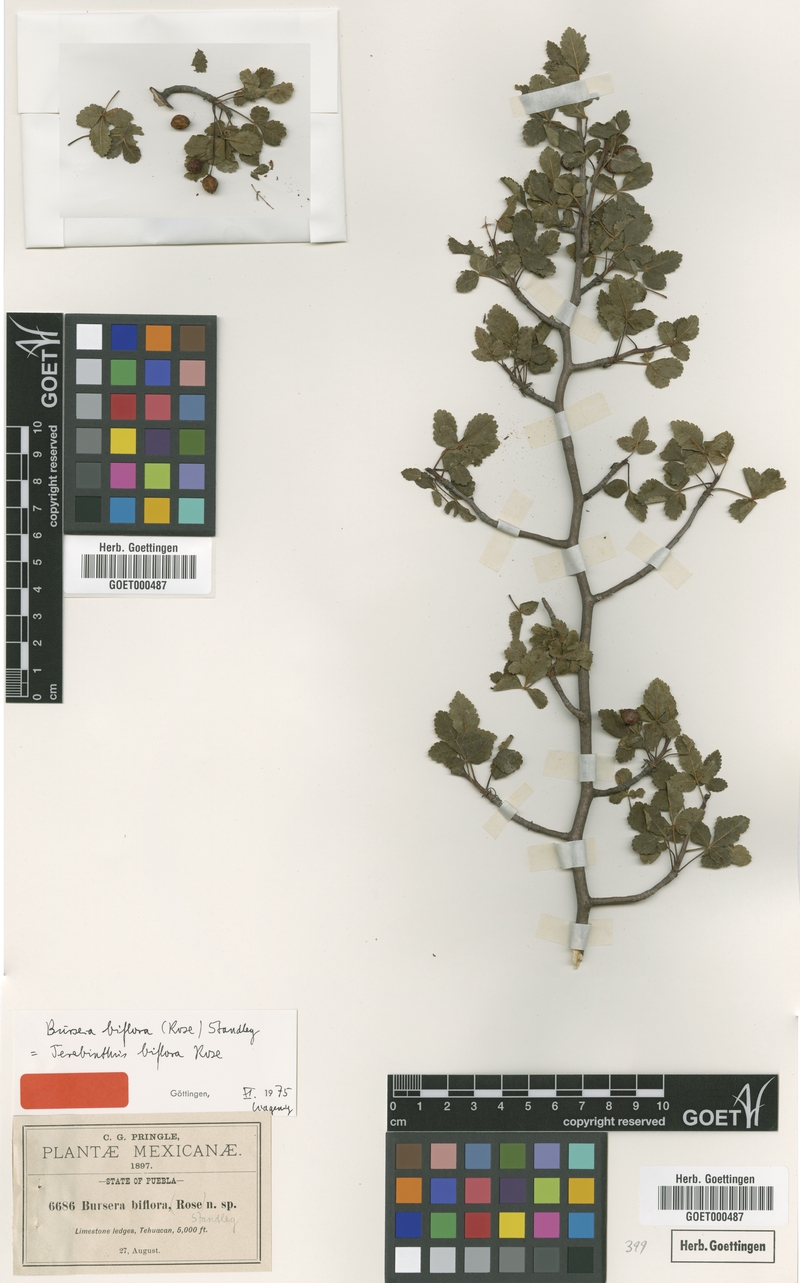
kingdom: Plantae
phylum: Tracheophyta
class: Magnoliopsida
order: Sapindales
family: Burseraceae
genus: Bursera
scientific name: Bursera biflora
